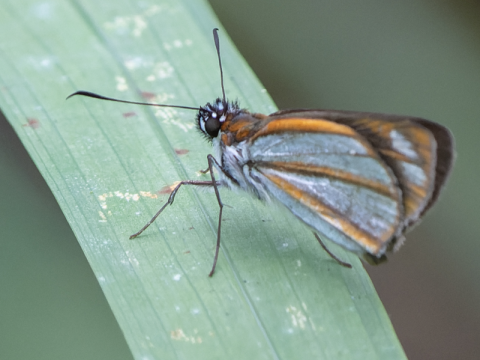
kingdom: Animalia
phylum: Arthropoda
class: Insecta
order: Lepidoptera
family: Hesperiidae
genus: Vettius
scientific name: Vettius coryna
